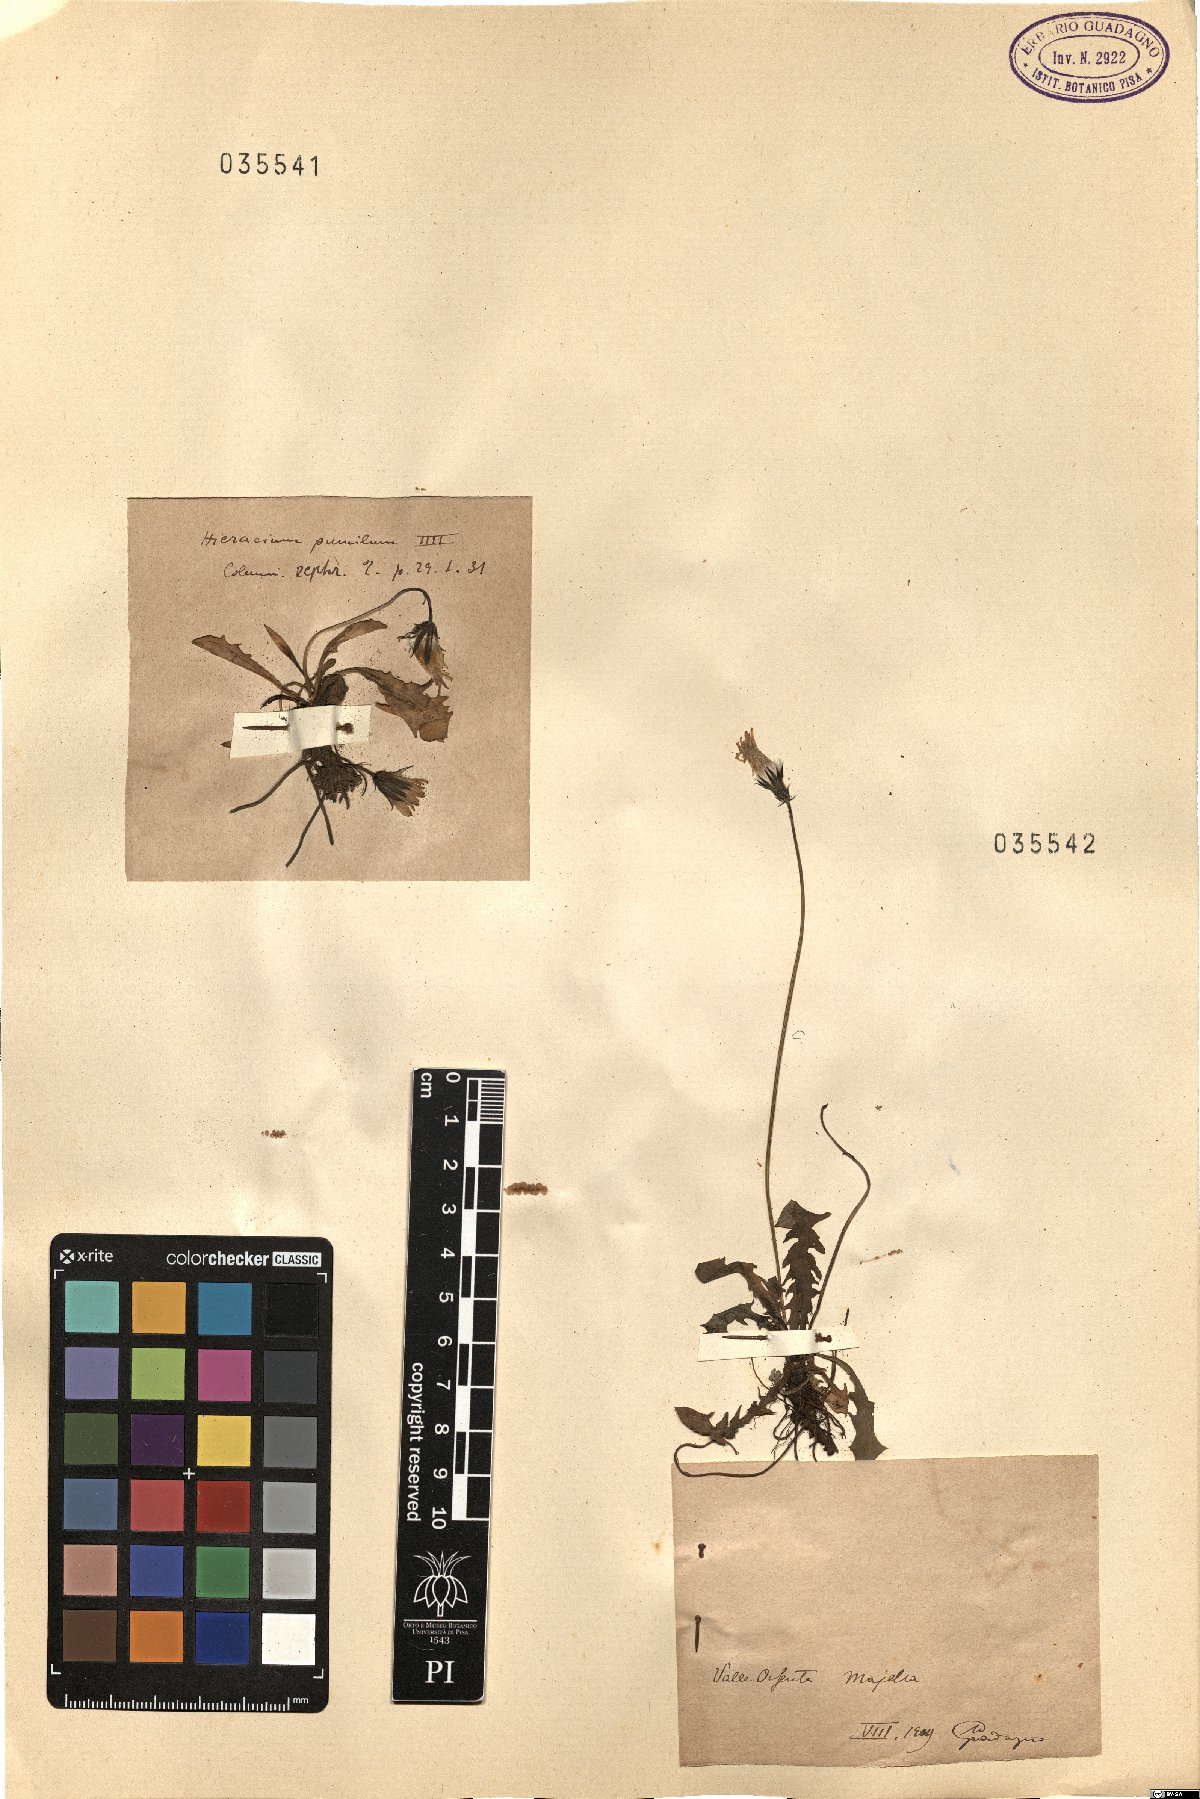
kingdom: Plantae
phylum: Tracheophyta
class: Magnoliopsida
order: Asterales
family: Asteraceae
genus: Hieracium
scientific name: Hieracium alpinum
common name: Alpine hawkweed
